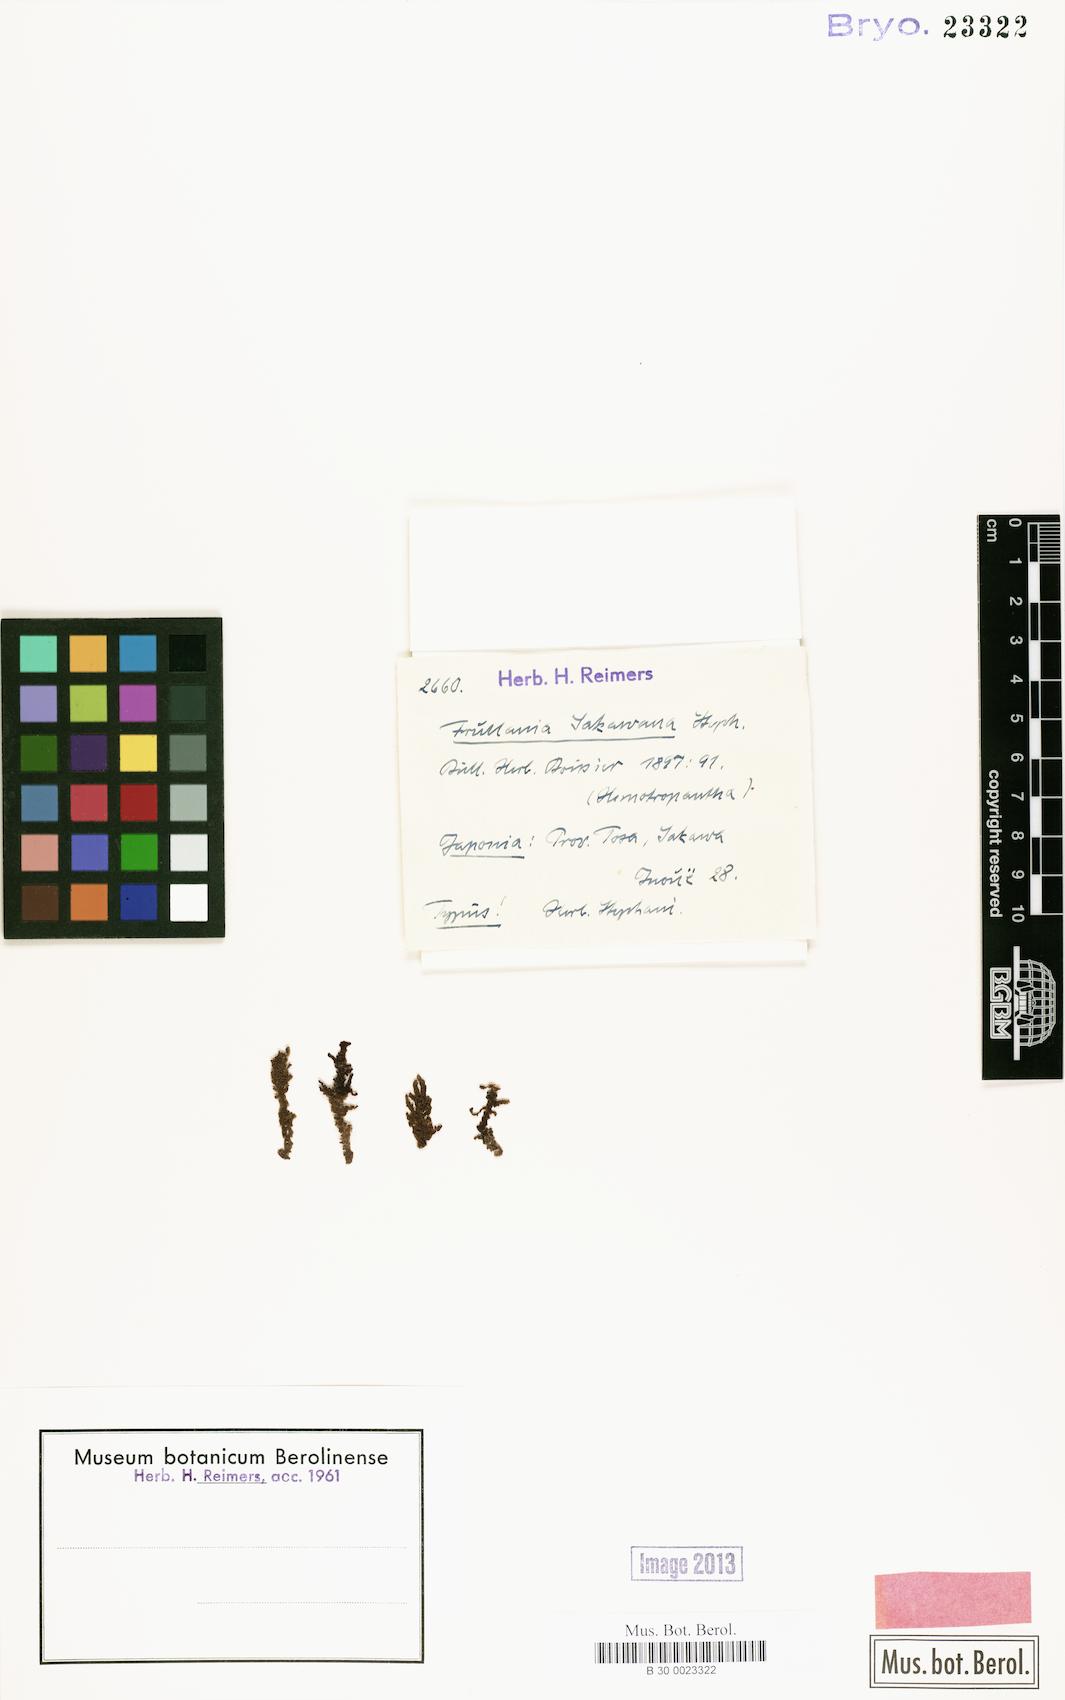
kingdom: Plantae
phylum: Marchantiophyta
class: Jungermanniopsida
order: Porellales
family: Frullaniaceae
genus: Frullania
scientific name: Frullania sabahana
